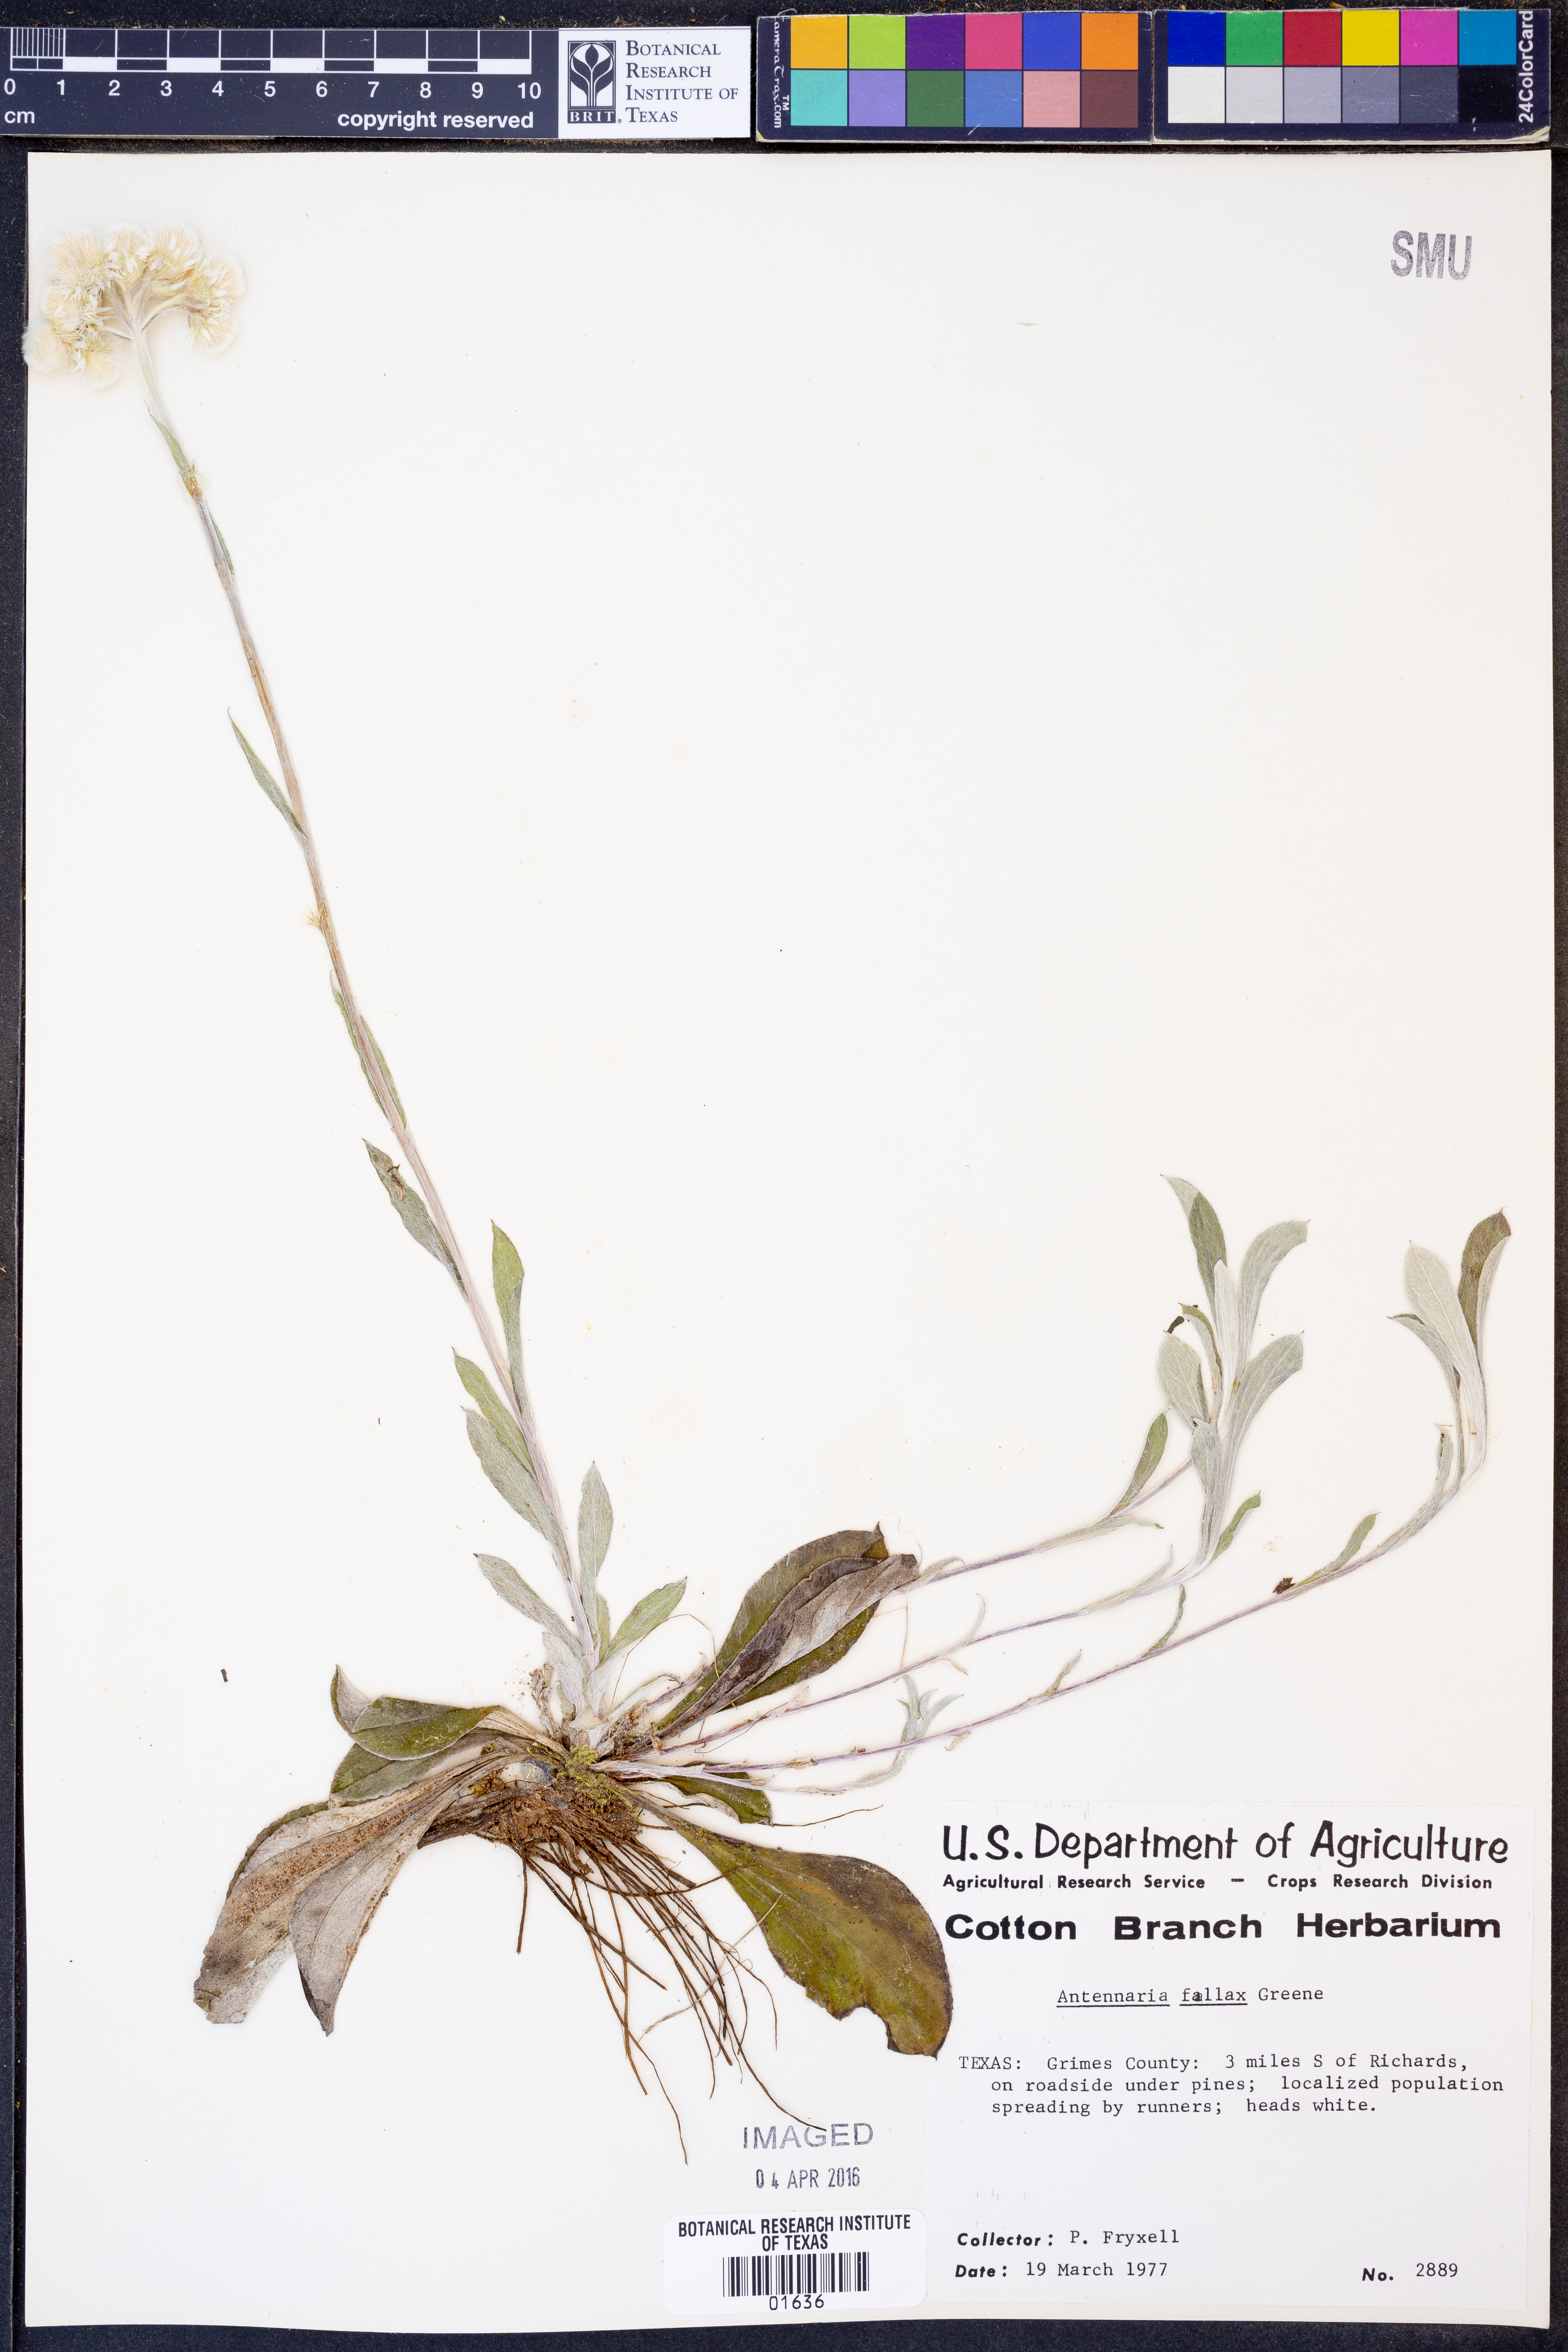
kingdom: Plantae
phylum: Tracheophyta
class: Magnoliopsida
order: Asterales
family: Asteraceae
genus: Antennaria
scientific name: Antennaria parlinii
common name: Parlin's pussytoes
